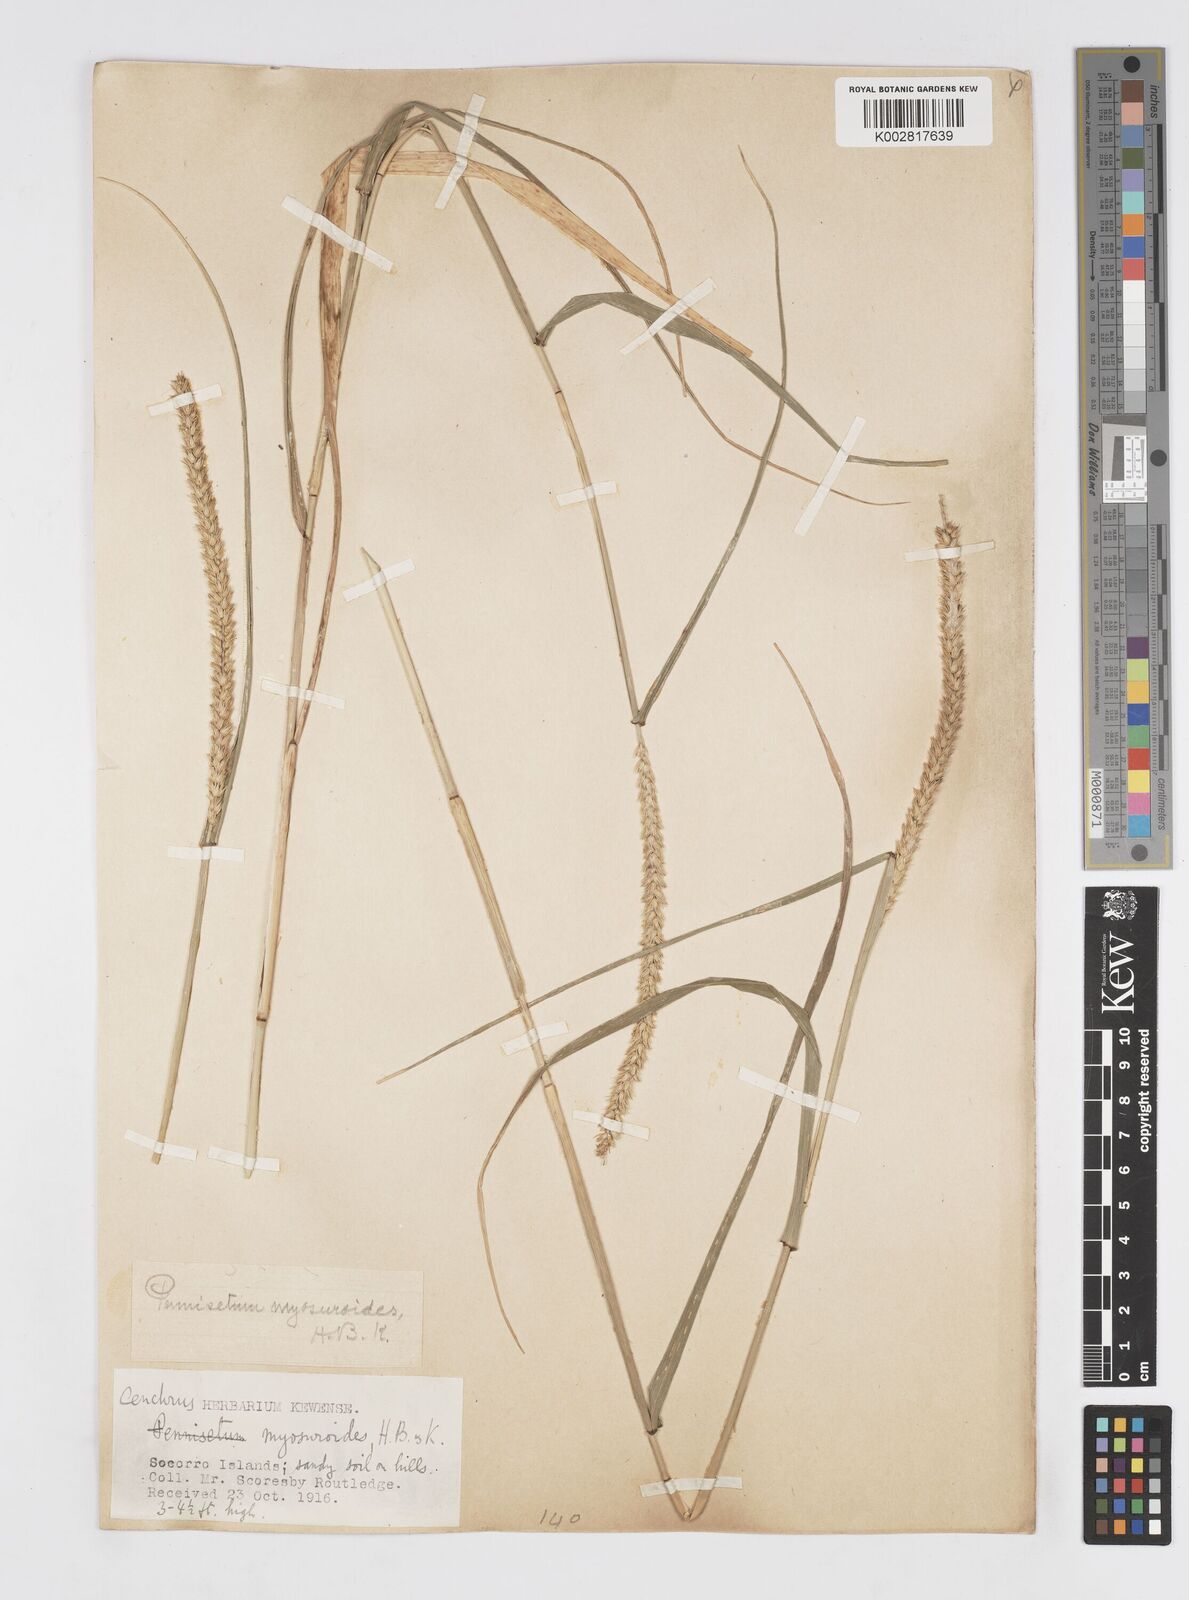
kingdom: Plantae
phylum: Tracheophyta
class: Liliopsida
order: Poales
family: Poaceae
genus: Cenchrus
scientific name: Cenchrus myosuroides
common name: Big sandbur
